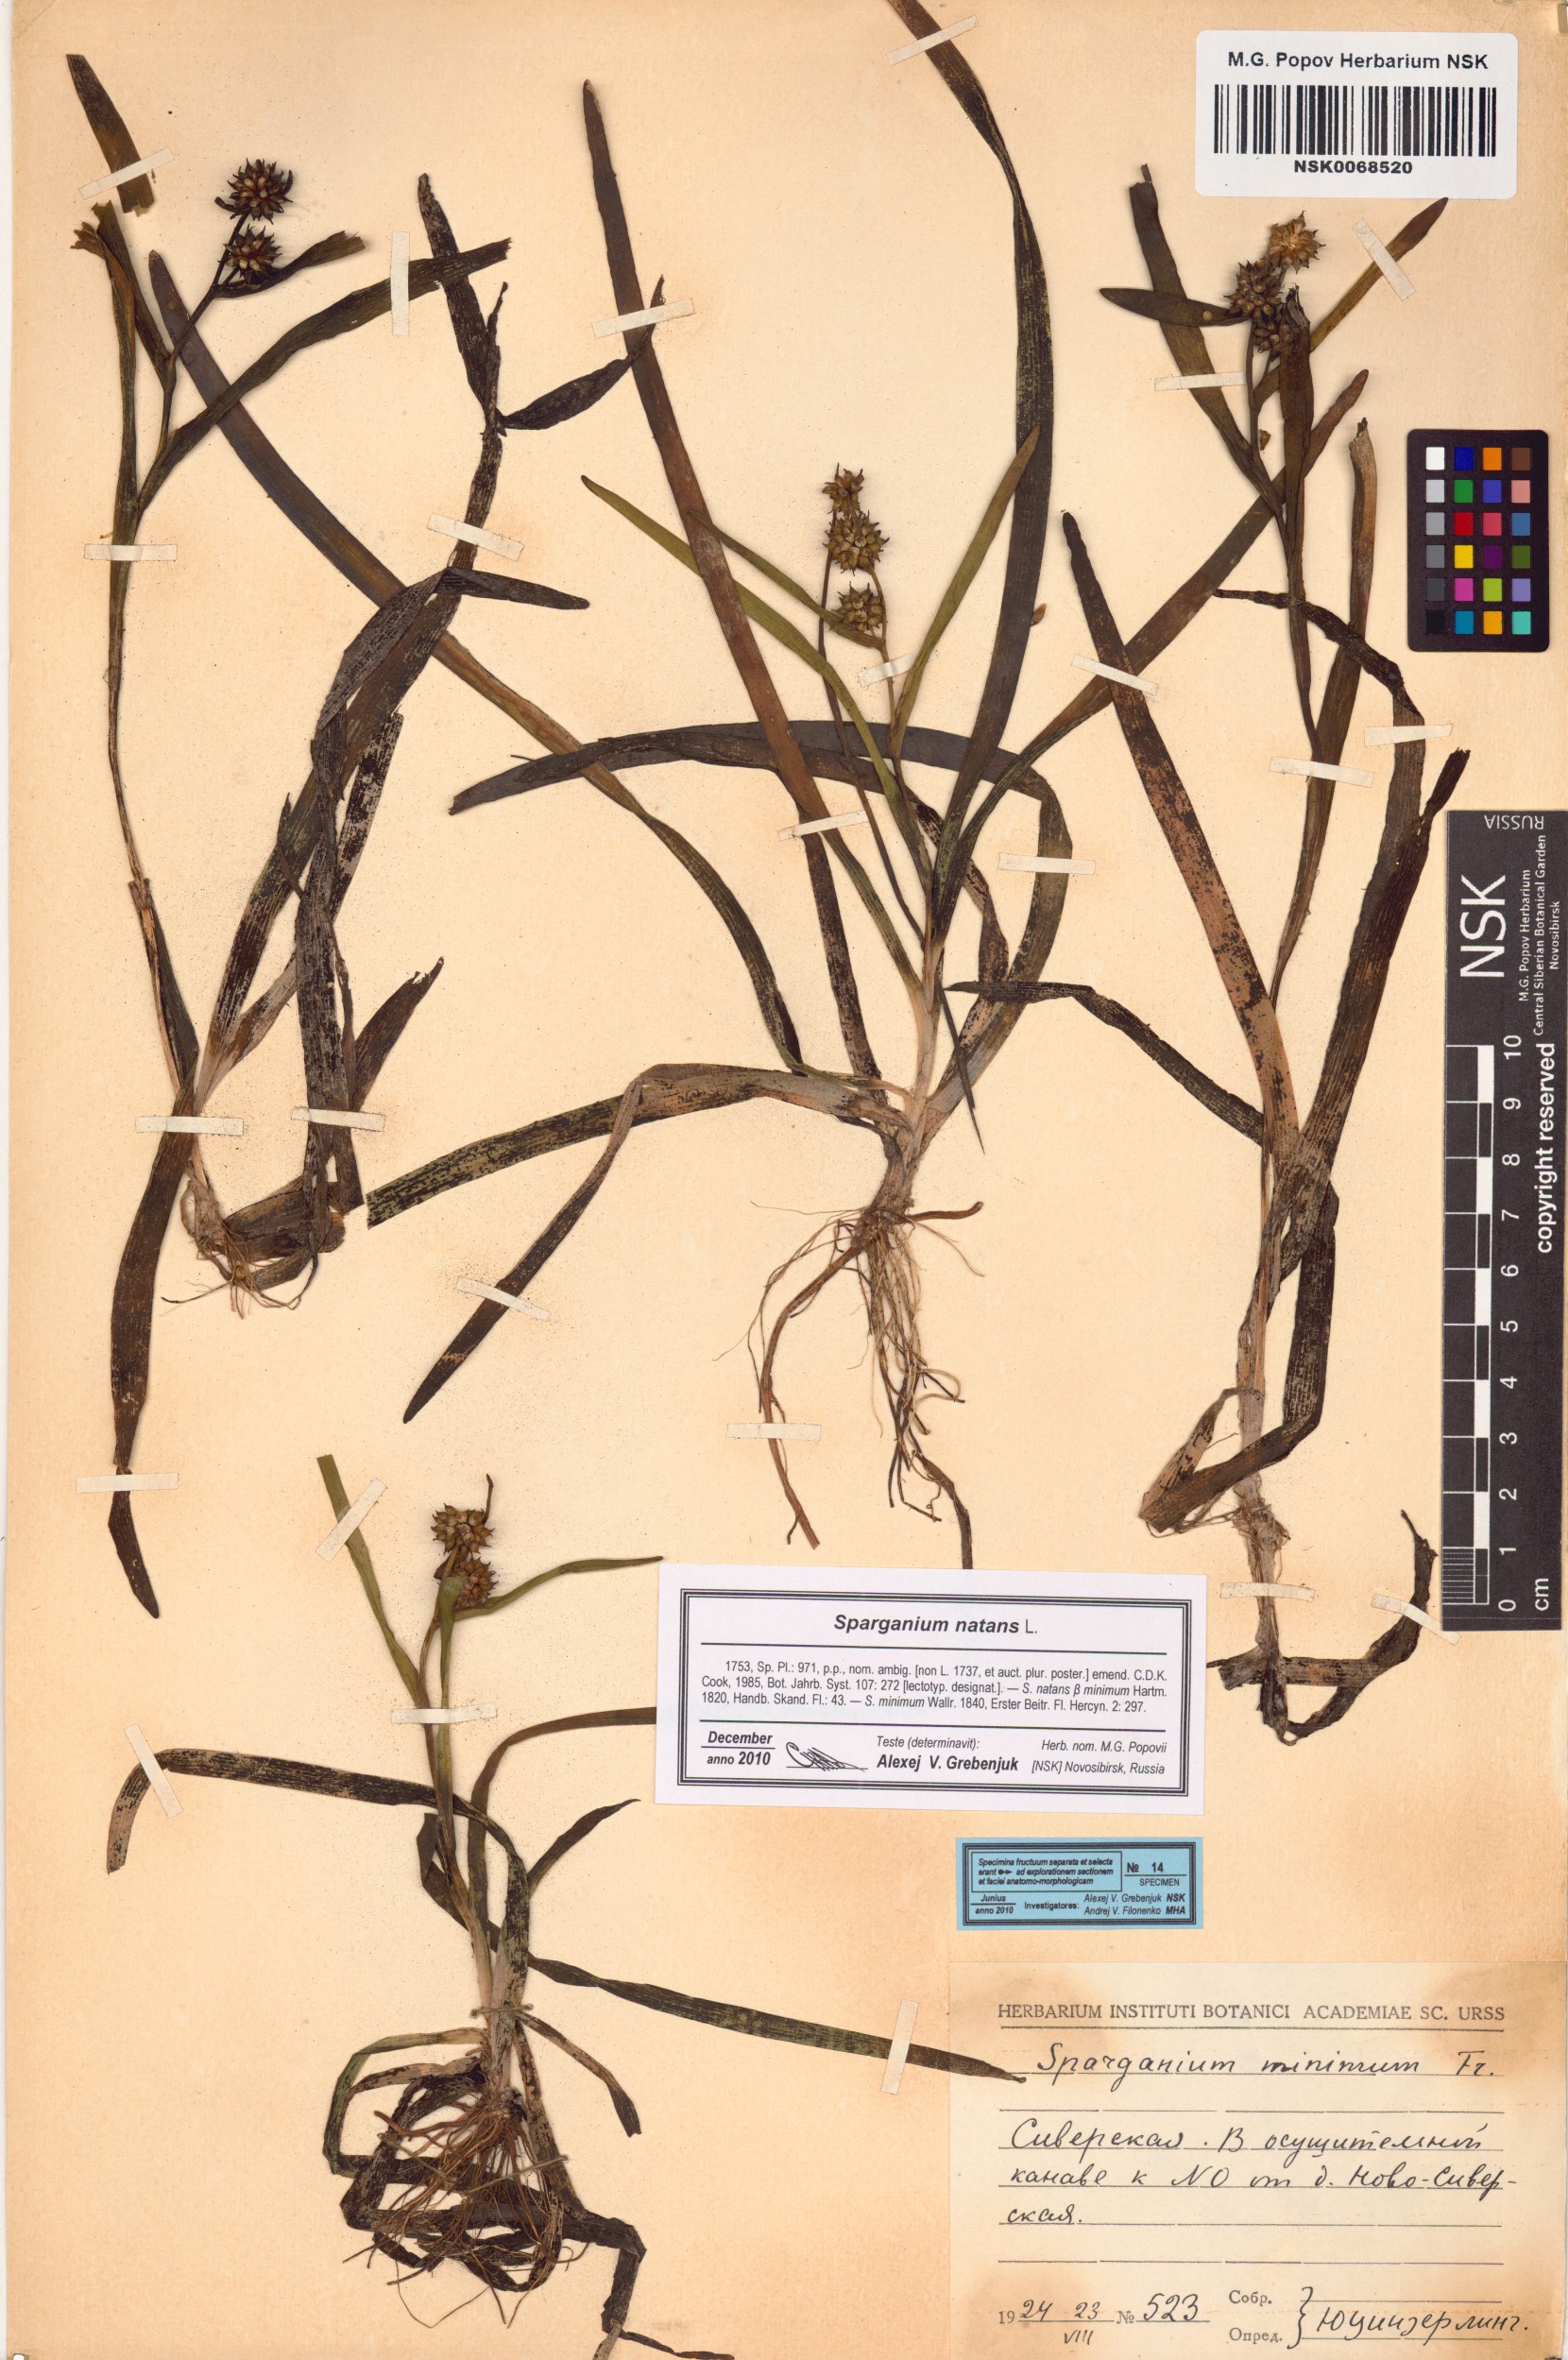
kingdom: Plantae
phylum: Tracheophyta
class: Liliopsida
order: Poales
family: Typhaceae
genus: Sparganium
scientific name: Sparganium natans
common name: Least bur-reed
